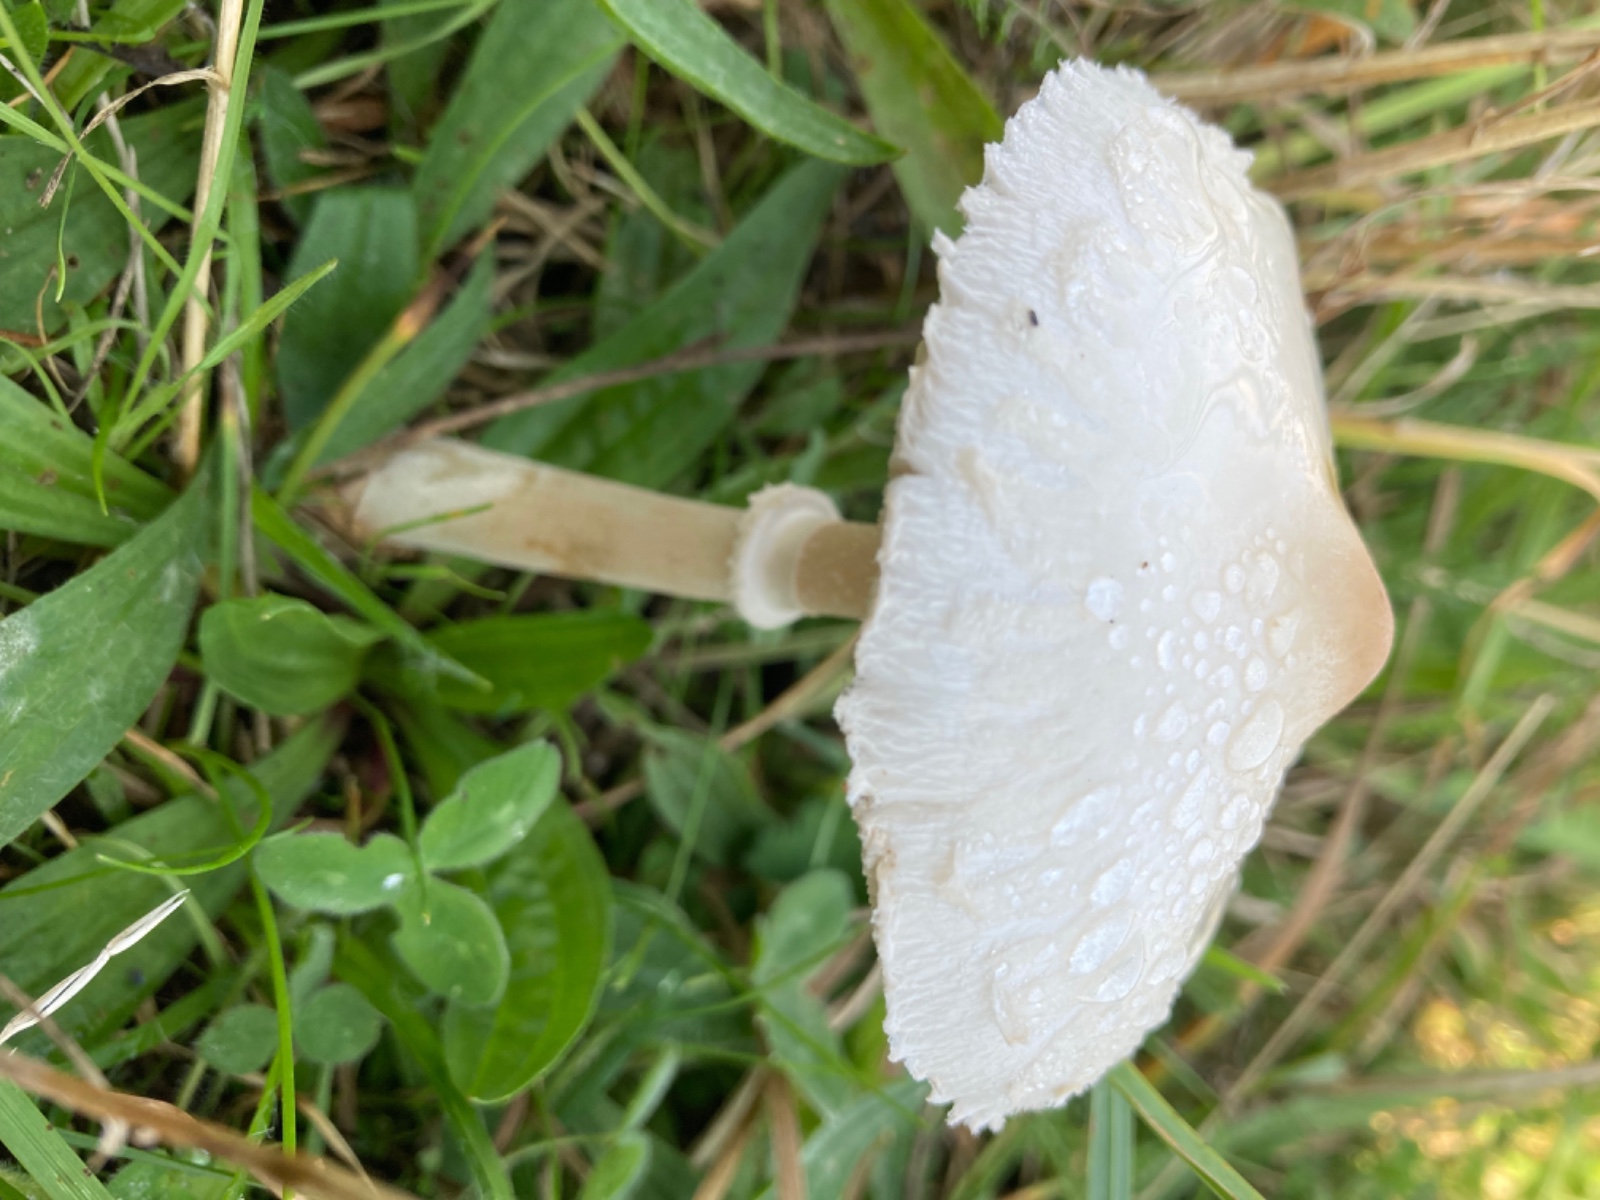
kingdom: Fungi
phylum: Basidiomycota
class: Agaricomycetes
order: Agaricales
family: Agaricaceae
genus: Macrolepiota
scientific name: Macrolepiota excoriata
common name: mark-kæmpeparasolhat
